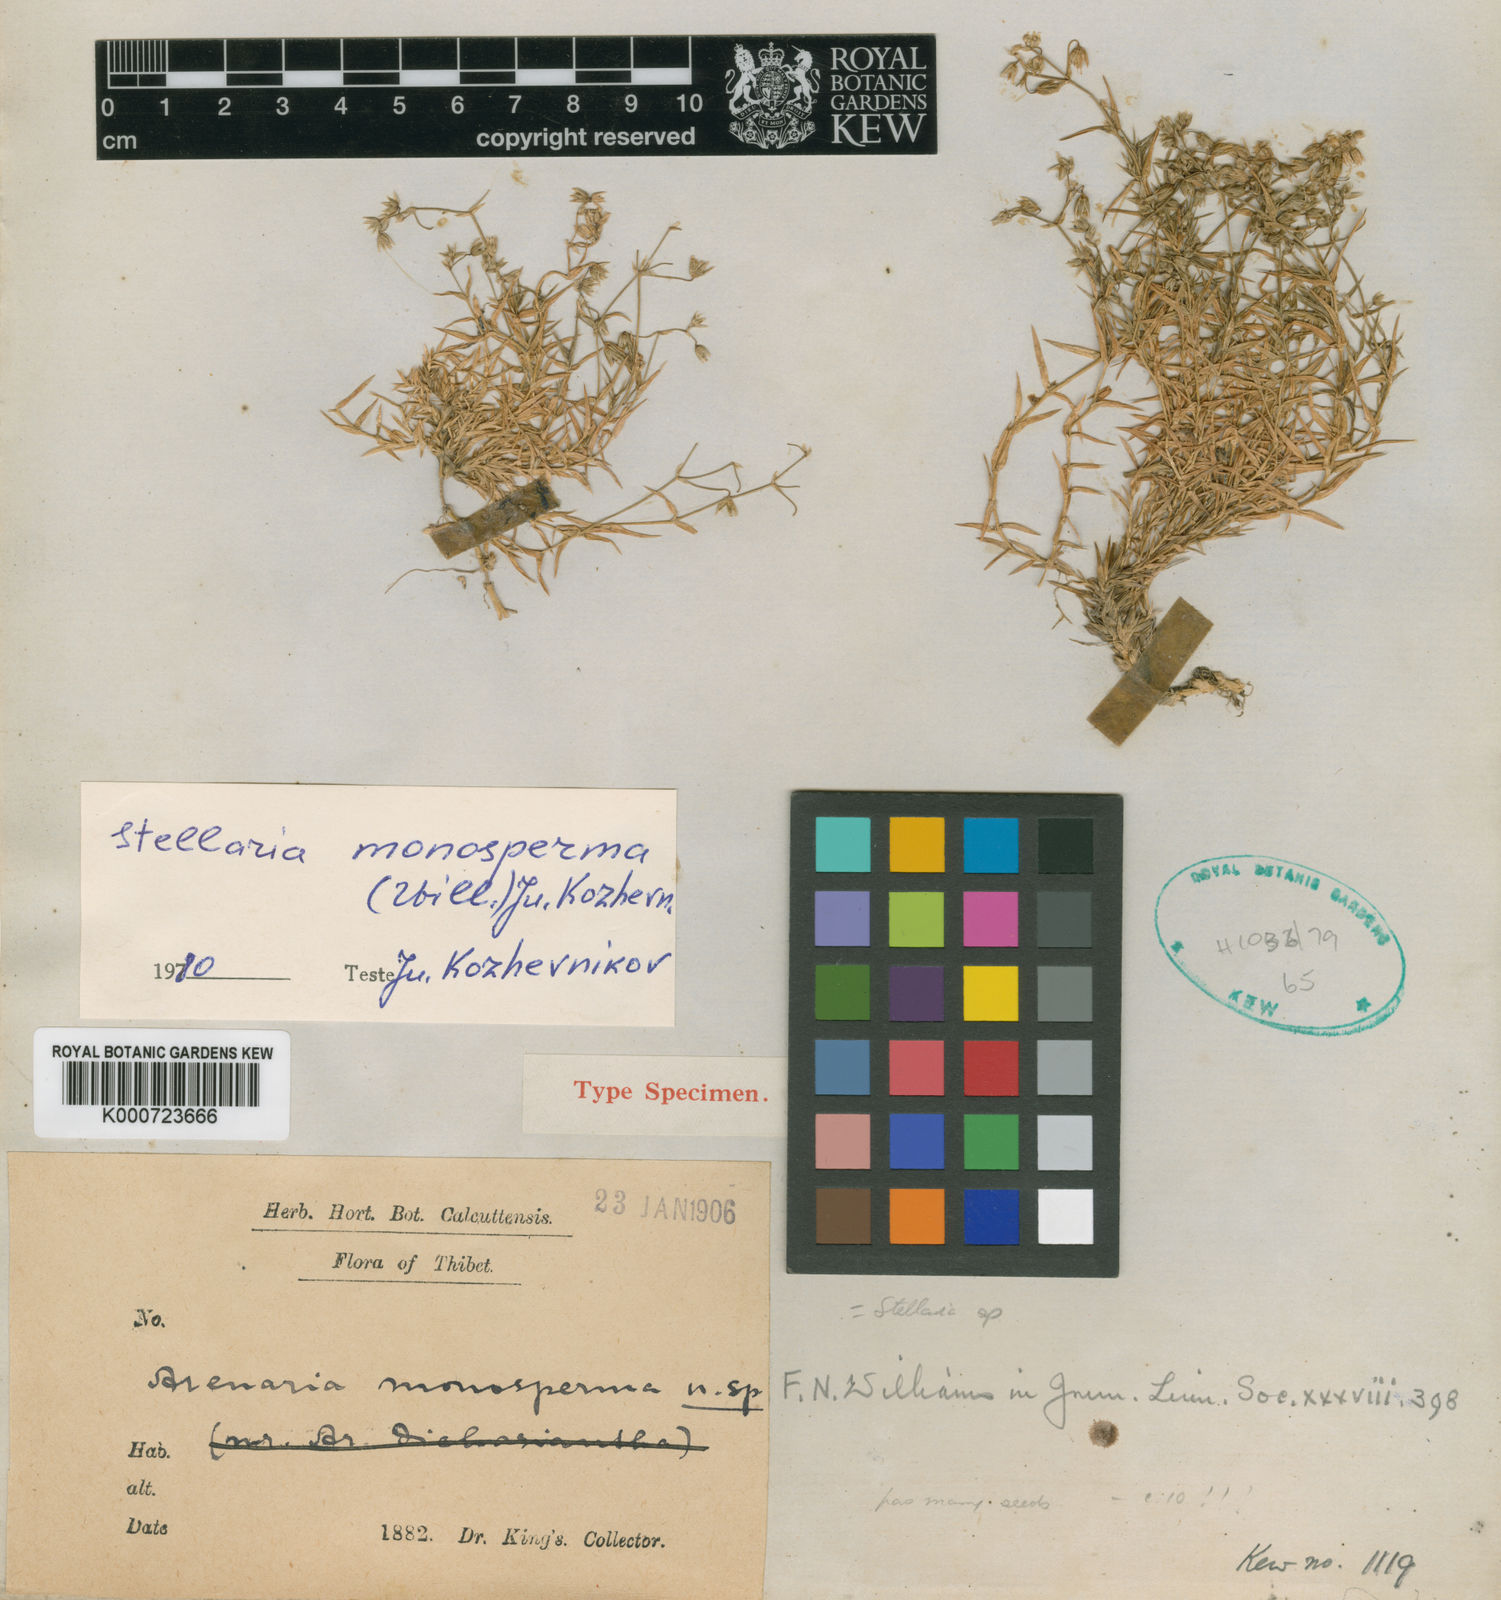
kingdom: Plantae
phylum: Tracheophyta
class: Magnoliopsida
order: Caryophyllales
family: Caryophyllaceae
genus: Schizotechium
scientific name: Schizotechium monospermum
